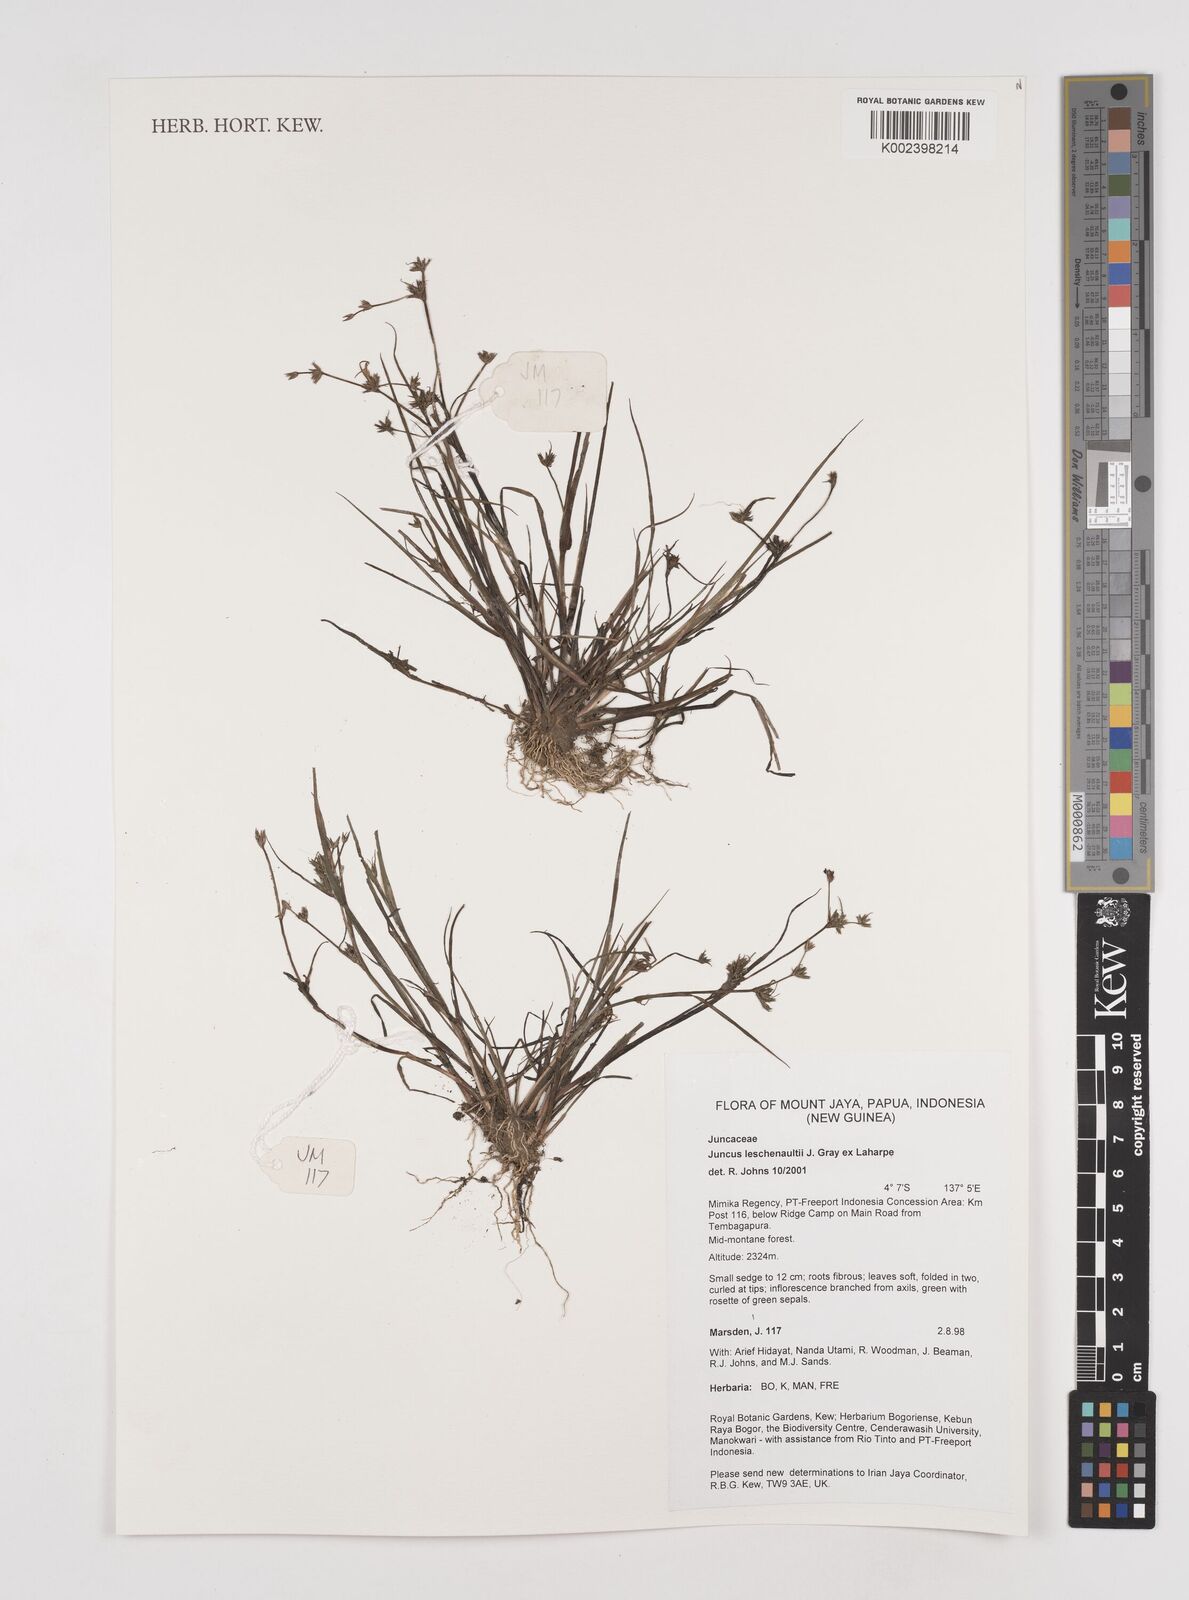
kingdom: Plantae
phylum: Tracheophyta
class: Liliopsida
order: Poales
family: Juncaceae
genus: Juncus
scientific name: Juncus prismatocarpus
